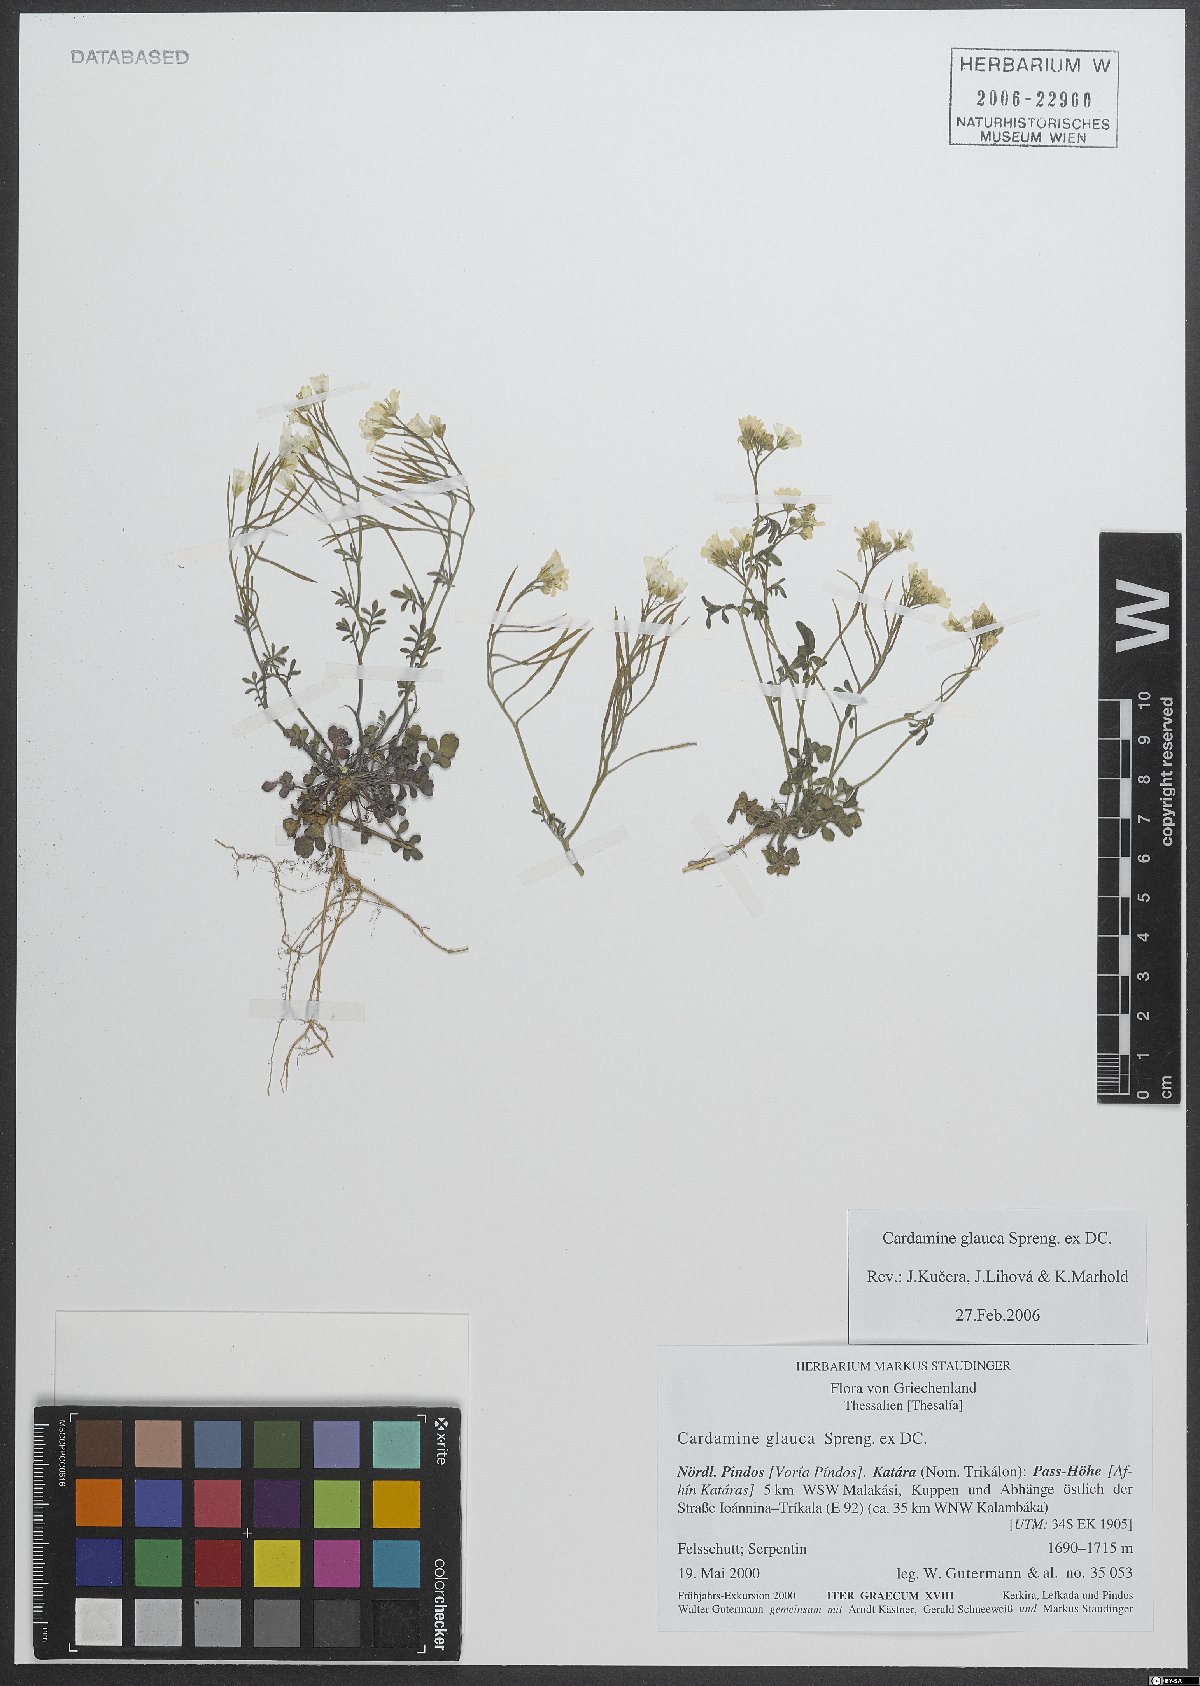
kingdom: Plantae
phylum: Tracheophyta
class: Magnoliopsida
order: Brassicales
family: Brassicaceae
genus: Cardamine
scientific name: Cardamine glauca
